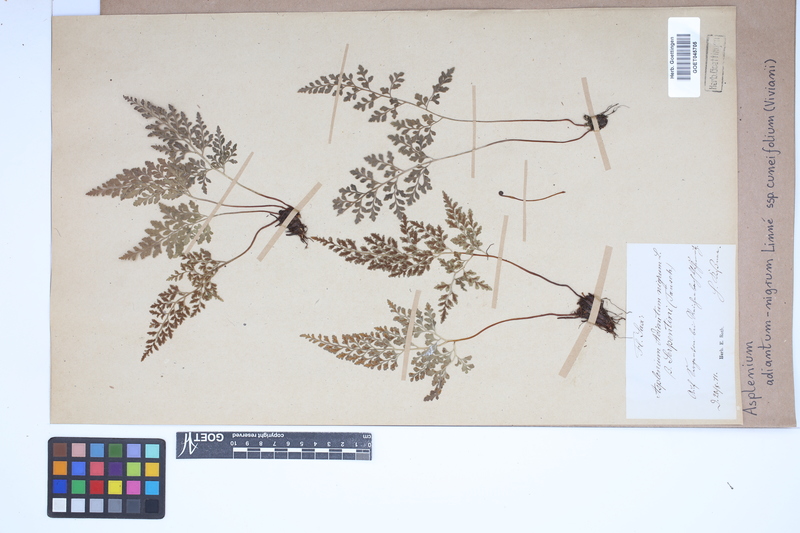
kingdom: Plantae
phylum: Tracheophyta
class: Polypodiopsida
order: Polypodiales
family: Aspleniaceae
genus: Asplenium
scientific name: Asplenium cuneifolium
